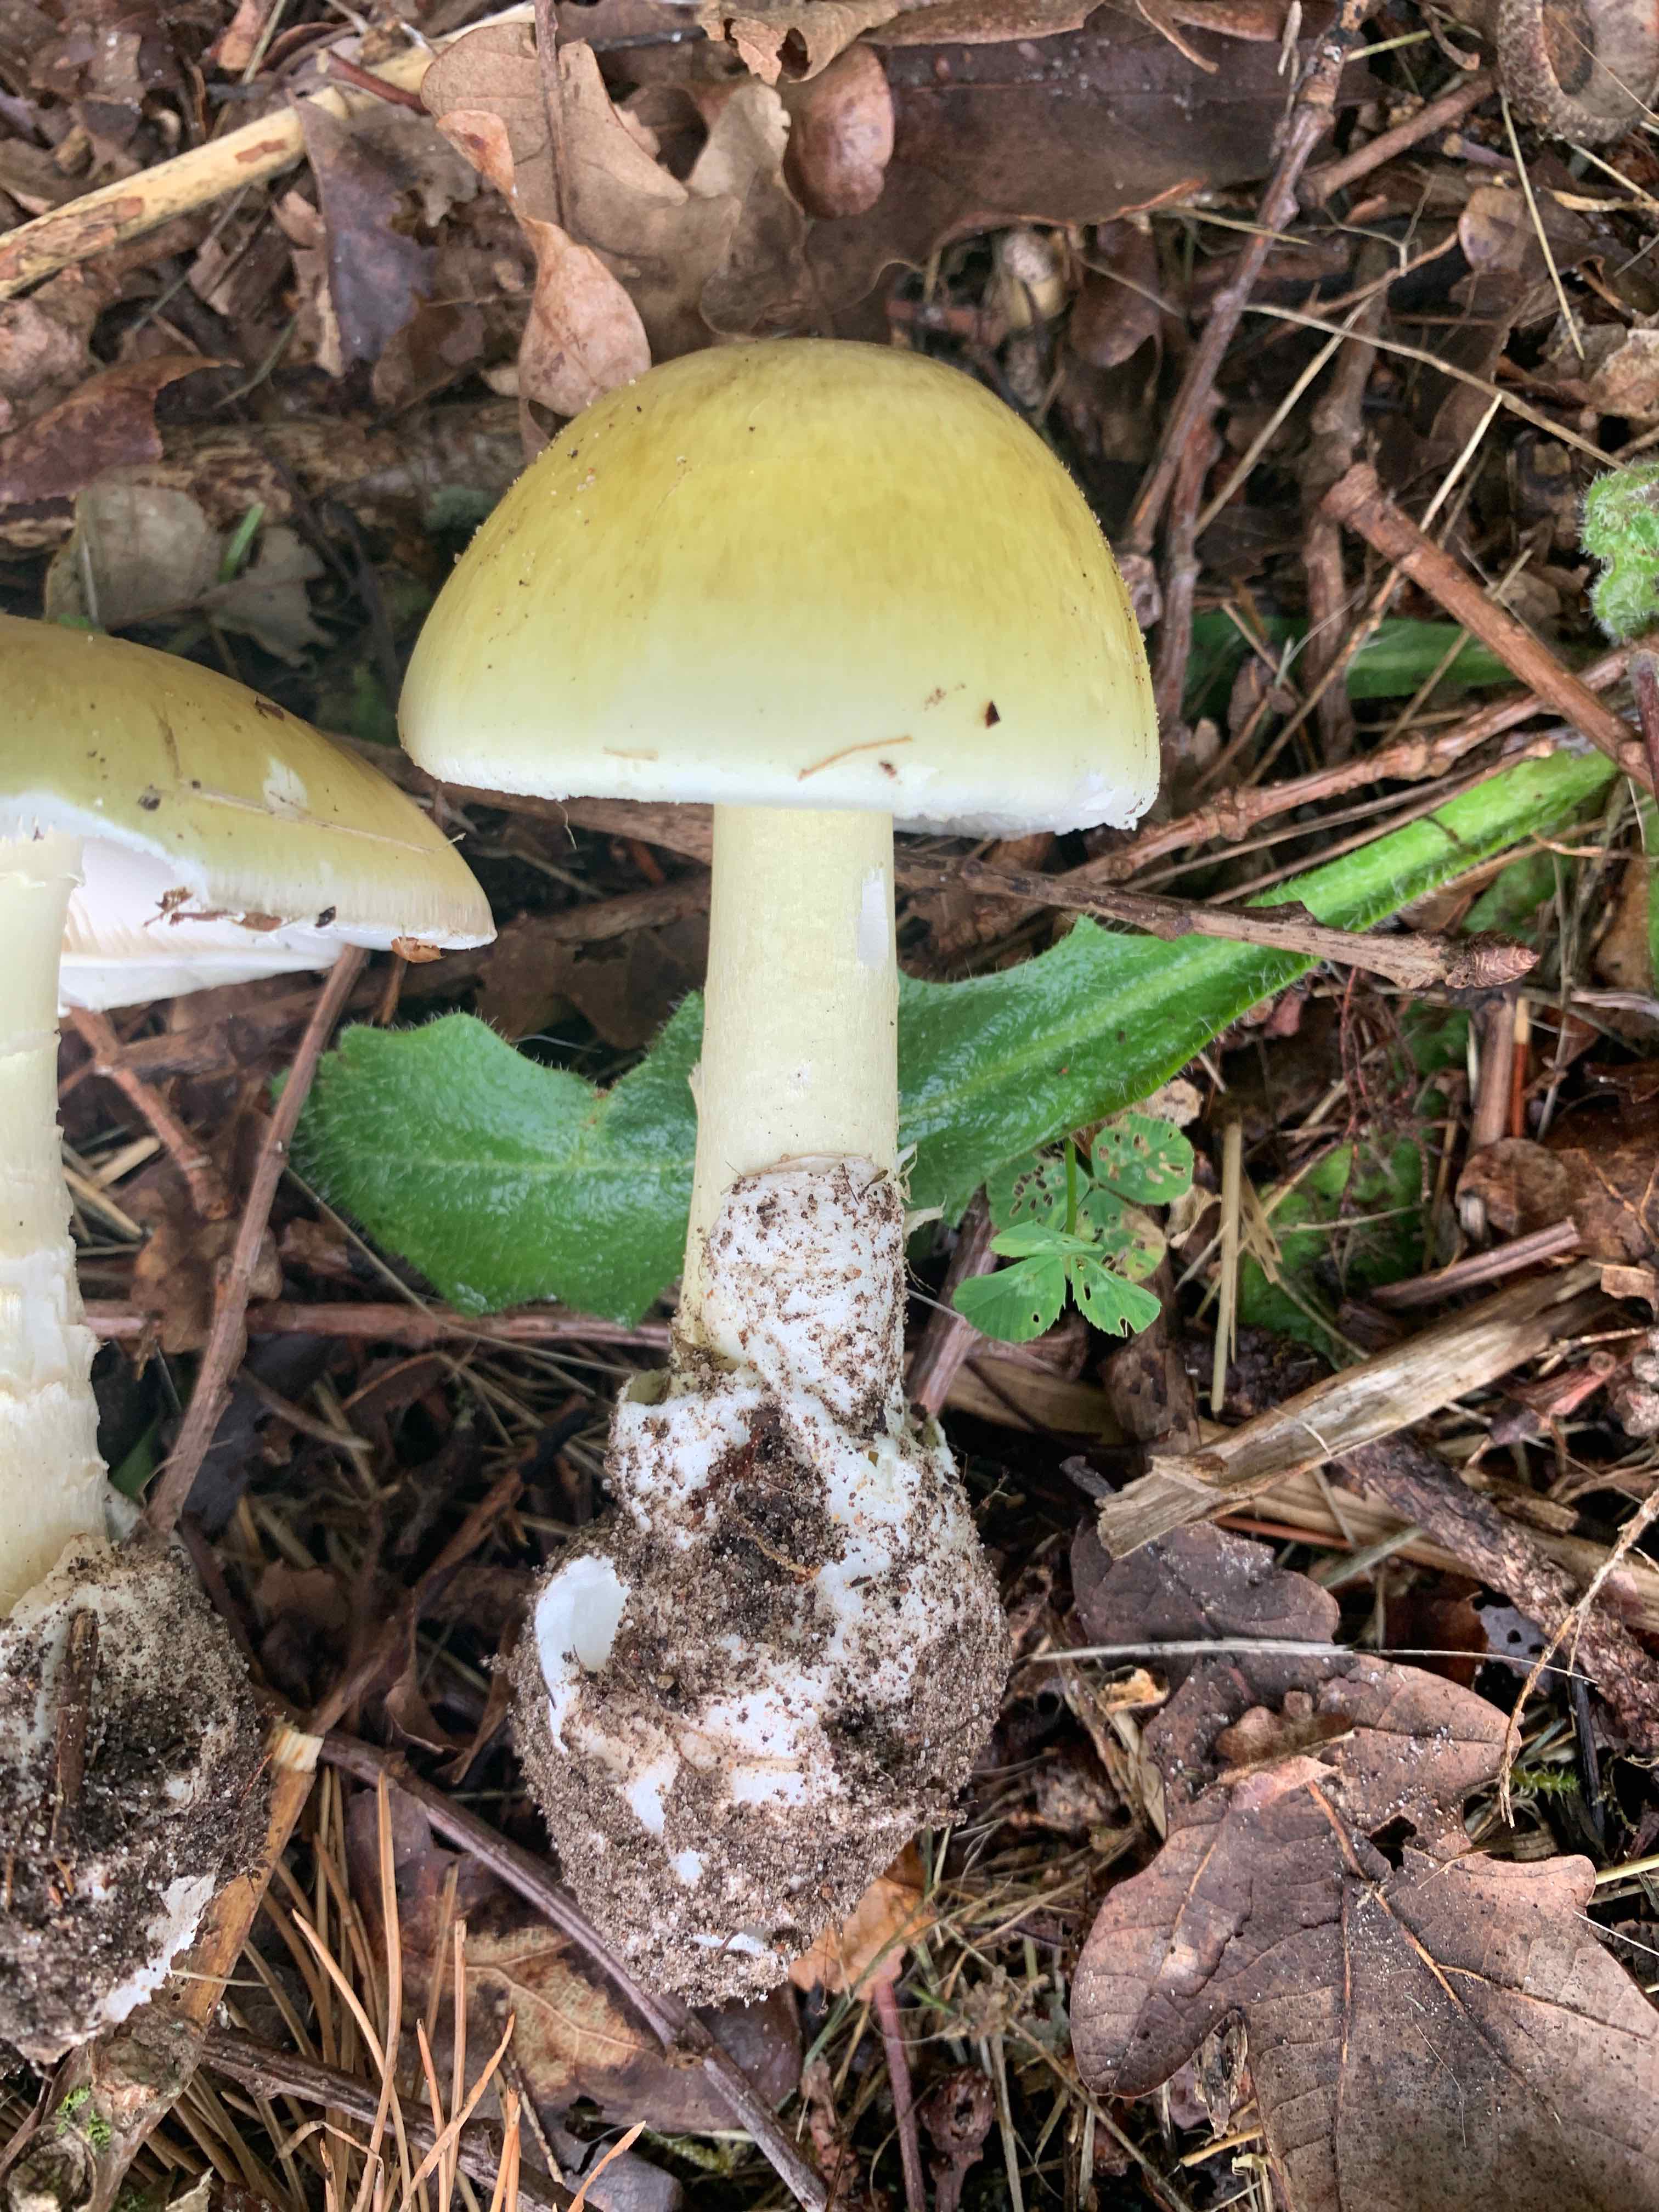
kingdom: Fungi
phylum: Basidiomycota
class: Agaricomycetes
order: Agaricales
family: Amanitaceae
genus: Amanita
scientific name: Amanita phalloides
